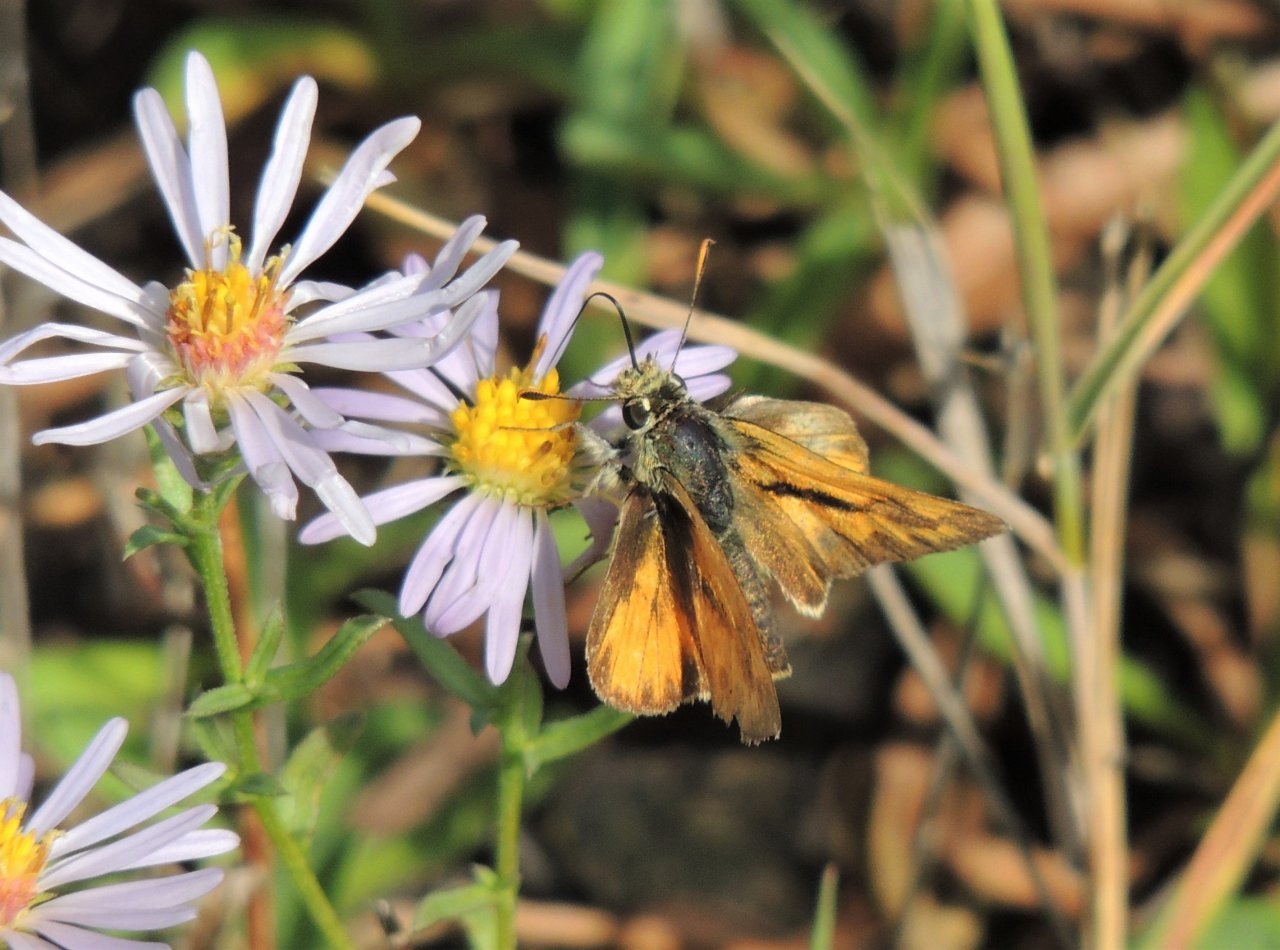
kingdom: Animalia
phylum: Arthropoda
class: Insecta
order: Lepidoptera
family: Hesperiidae
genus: Ochlodes
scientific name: Ochlodes sylvanoides
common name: Woodland Skipper
